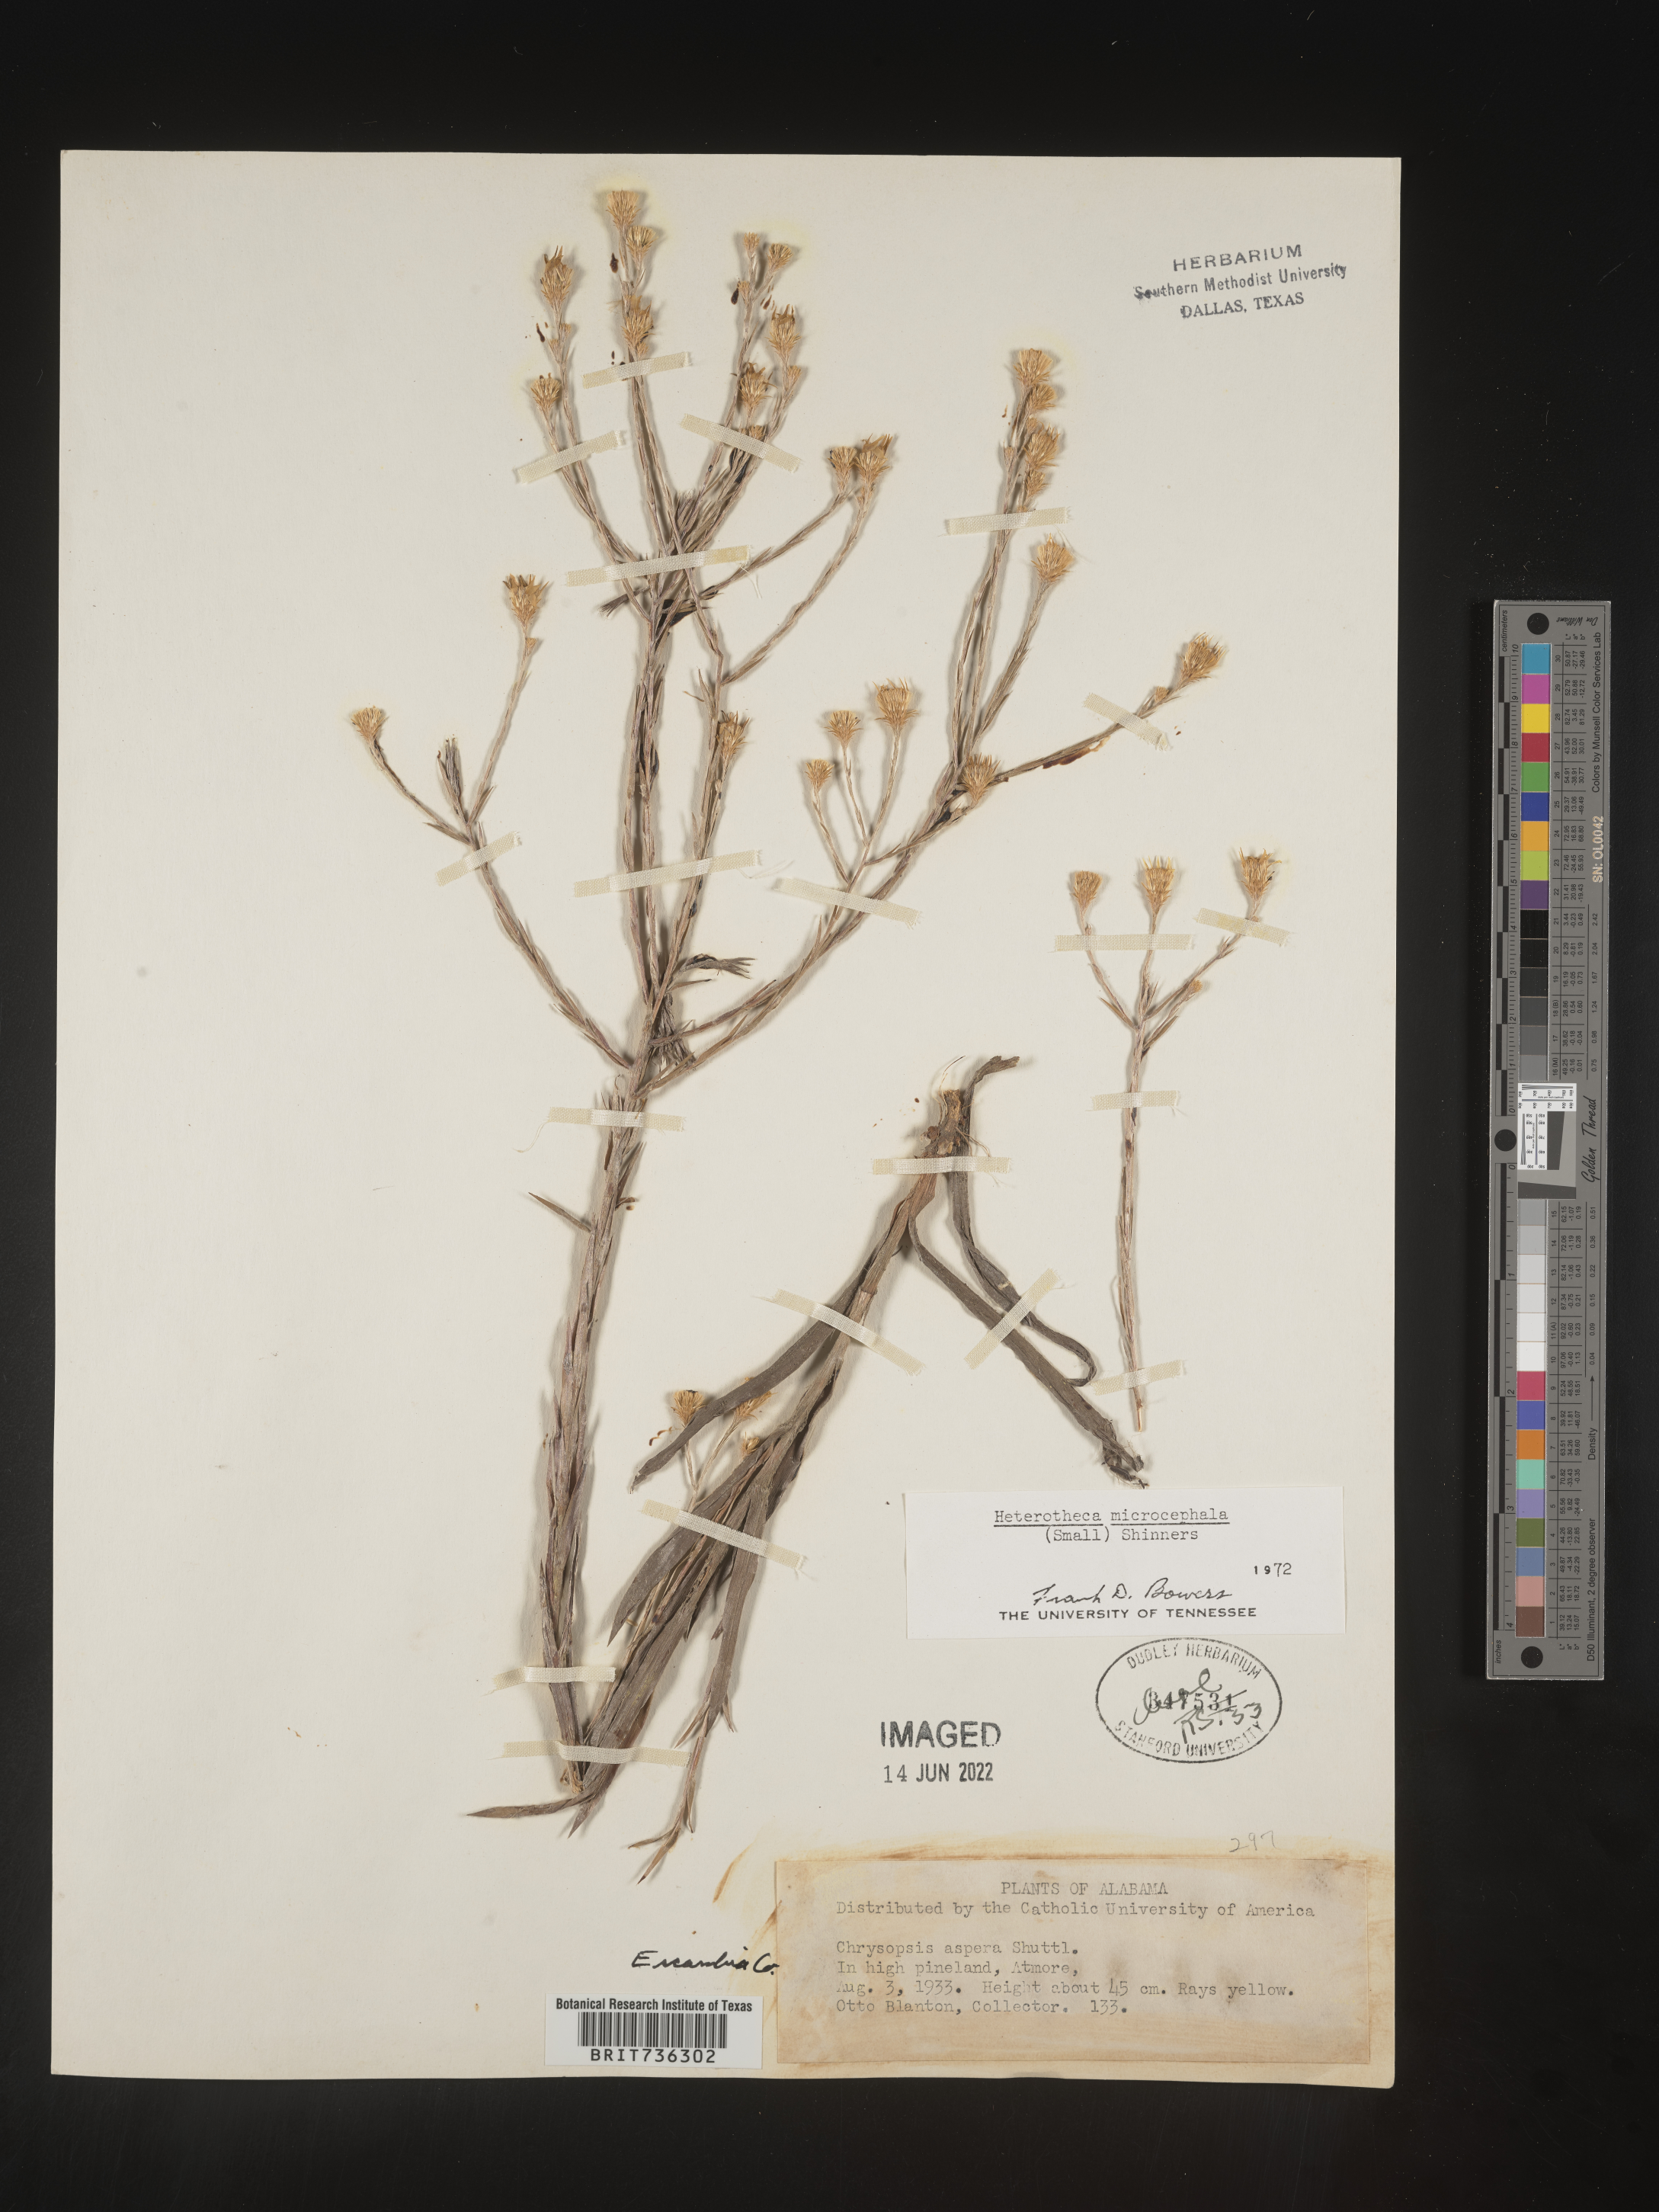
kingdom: Plantae
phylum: Tracheophyta
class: Magnoliopsida
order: Asterales
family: Asteraceae
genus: Pityopsis
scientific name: Pityopsis microcephala
